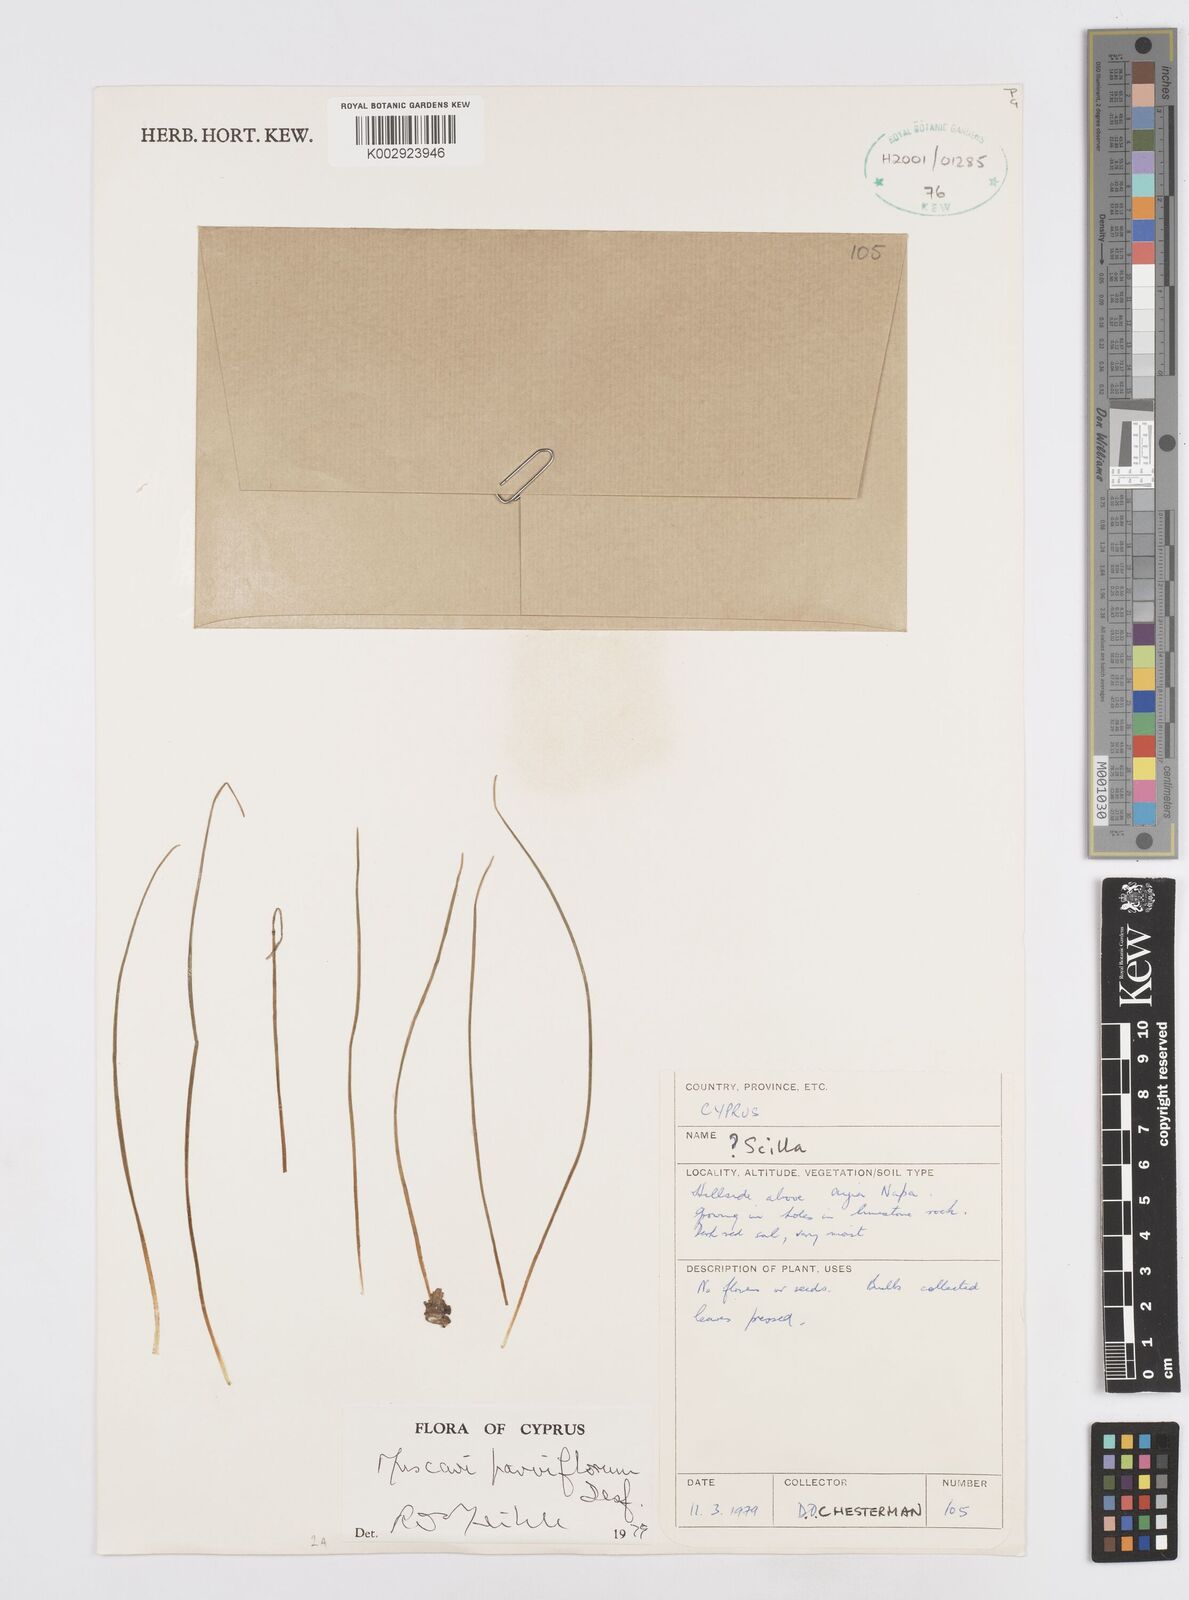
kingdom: Plantae
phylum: Tracheophyta
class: Liliopsida
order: Asparagales
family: Asparagaceae
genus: Muscari
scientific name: Muscari parviflorum
